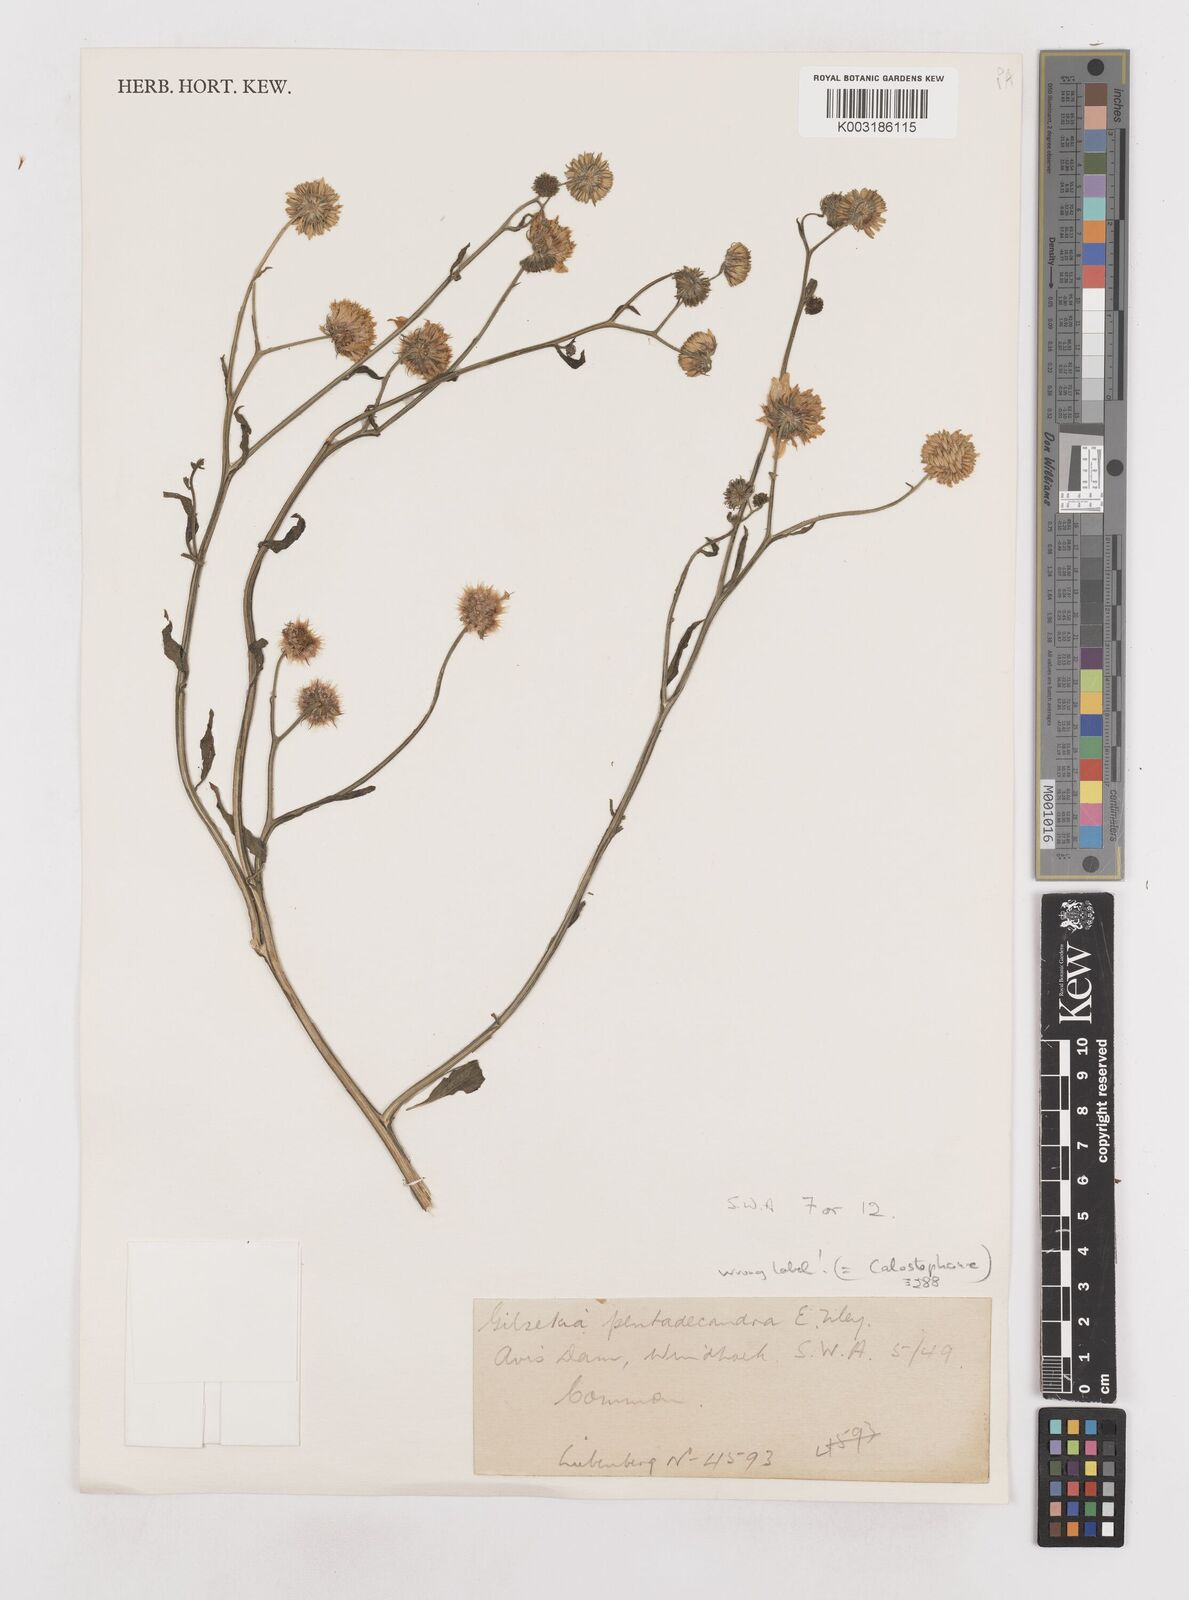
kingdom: Plantae
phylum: Tracheophyta
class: Magnoliopsida
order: Asterales
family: Asteraceae
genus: Calostephane
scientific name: Calostephane divaricata
